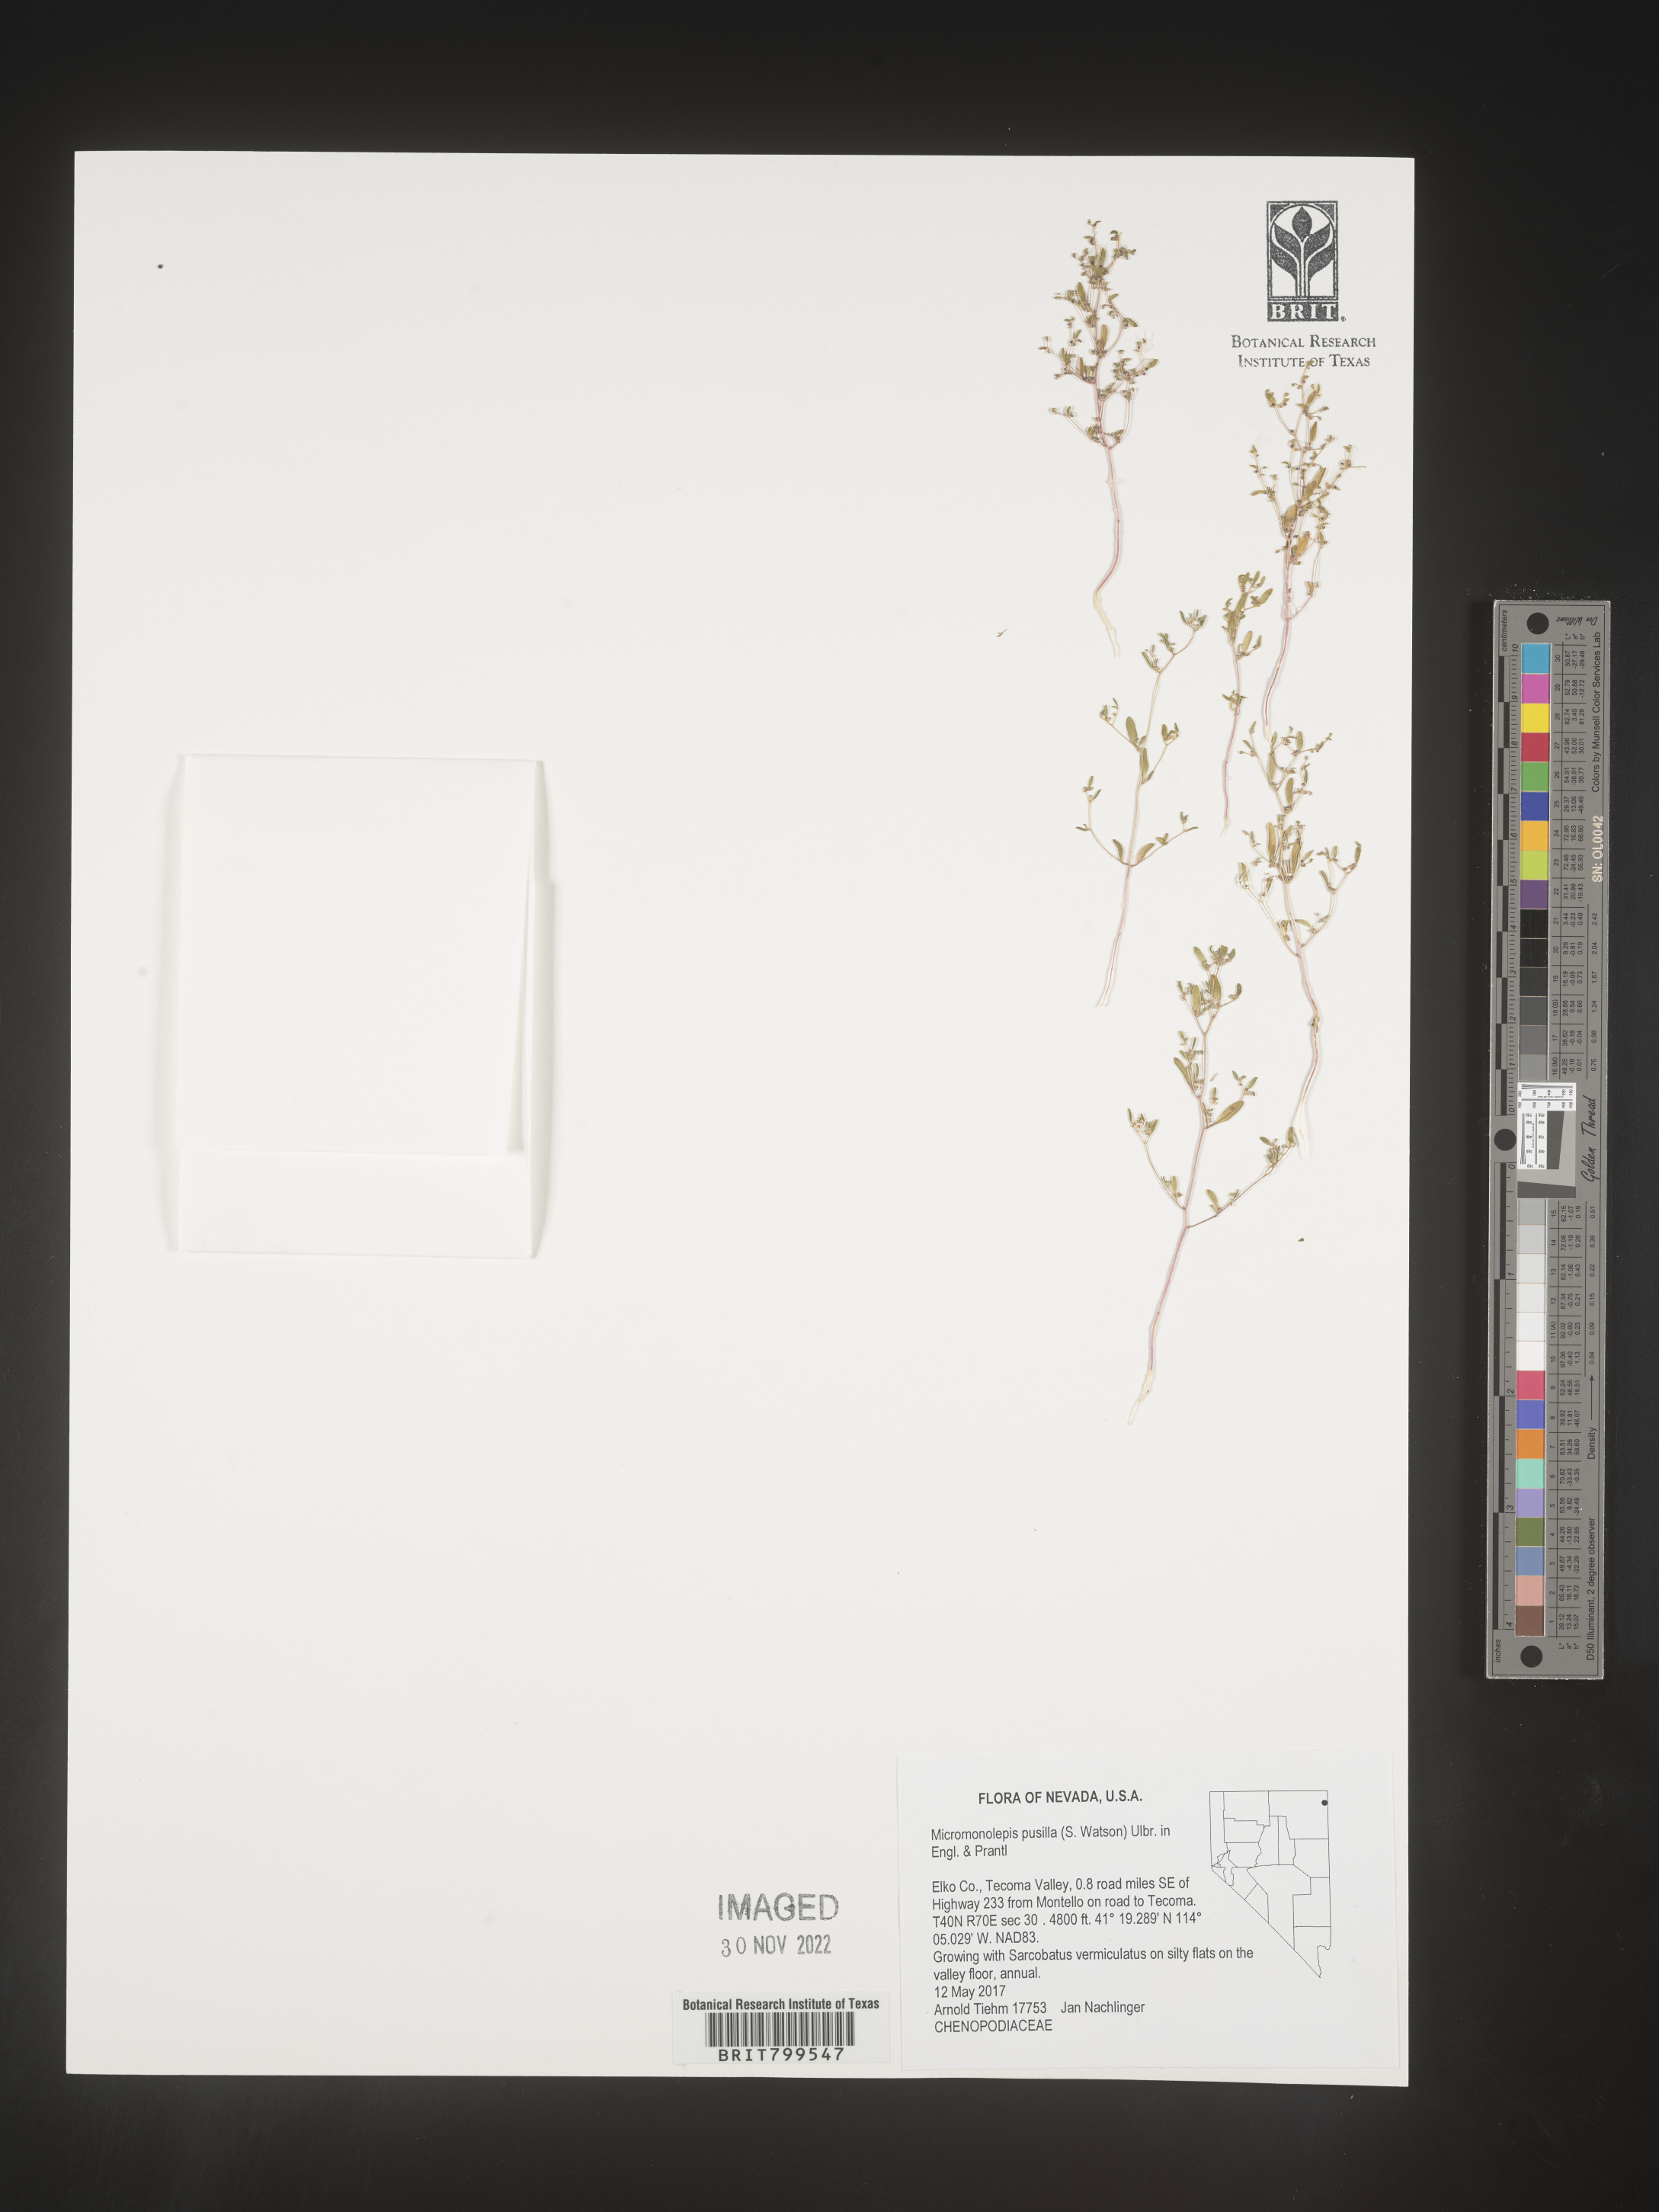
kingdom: Plantae
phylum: Tracheophyta
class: Magnoliopsida
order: Caryophyllales
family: Amaranthaceae
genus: Micromonolepis
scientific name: Micromonolepis
